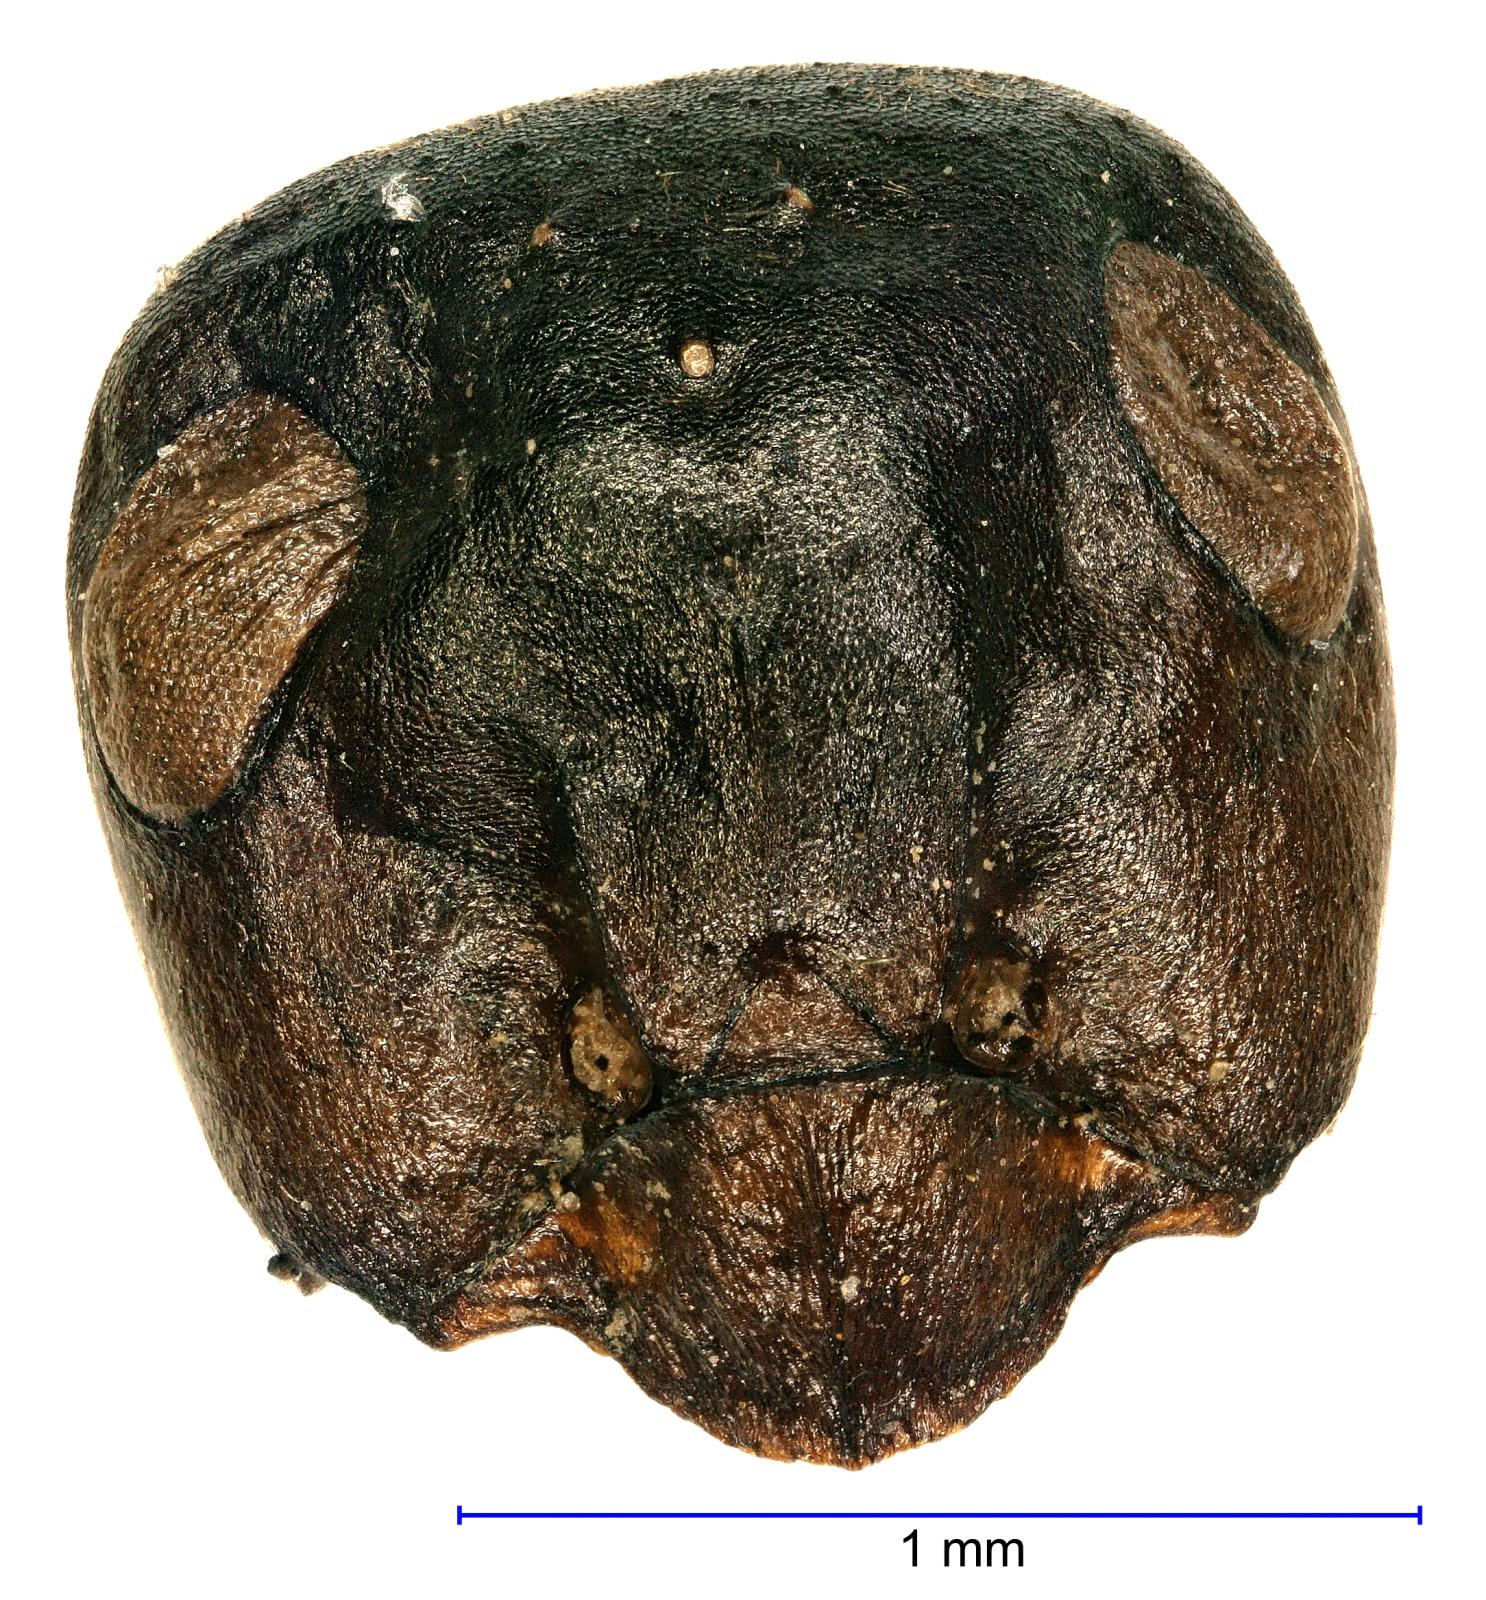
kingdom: Animalia
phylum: Arthropoda
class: Insecta
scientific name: Insecta
